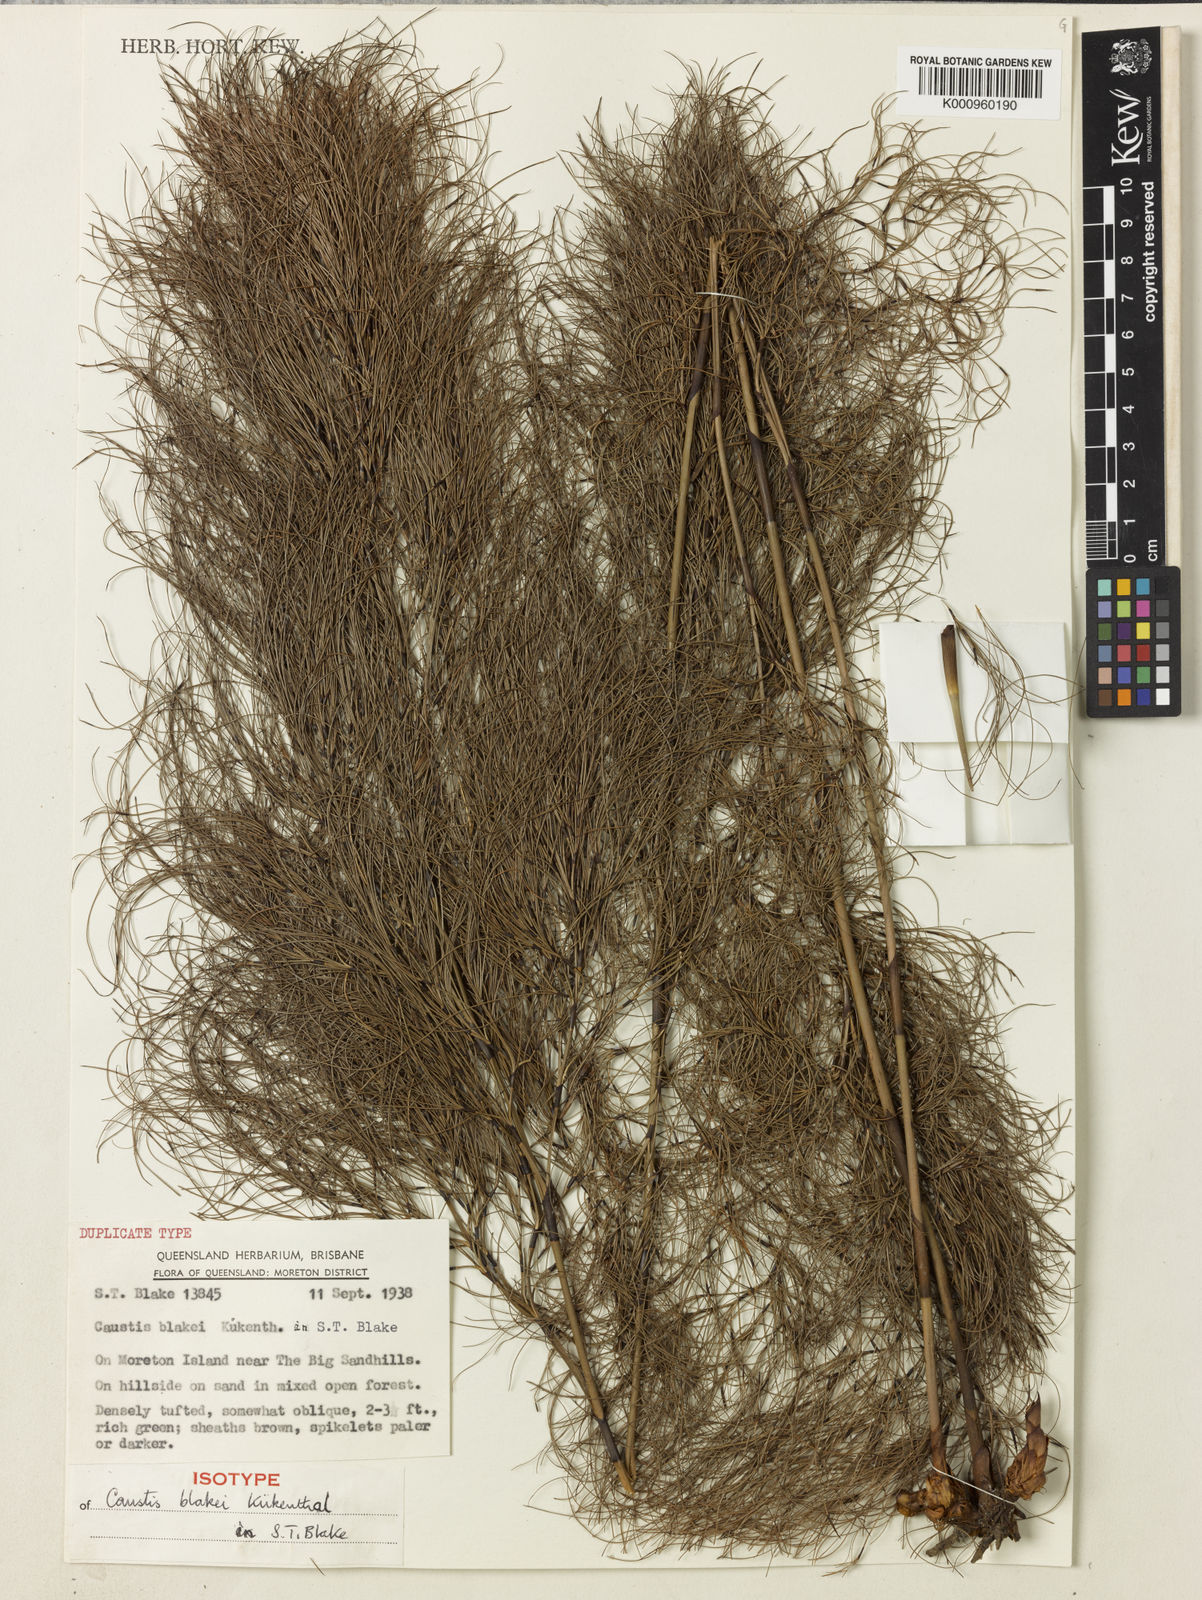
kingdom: Plantae
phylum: Tracheophyta
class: Liliopsida
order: Poales
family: Cyperaceae
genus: Caustis
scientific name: Caustis
